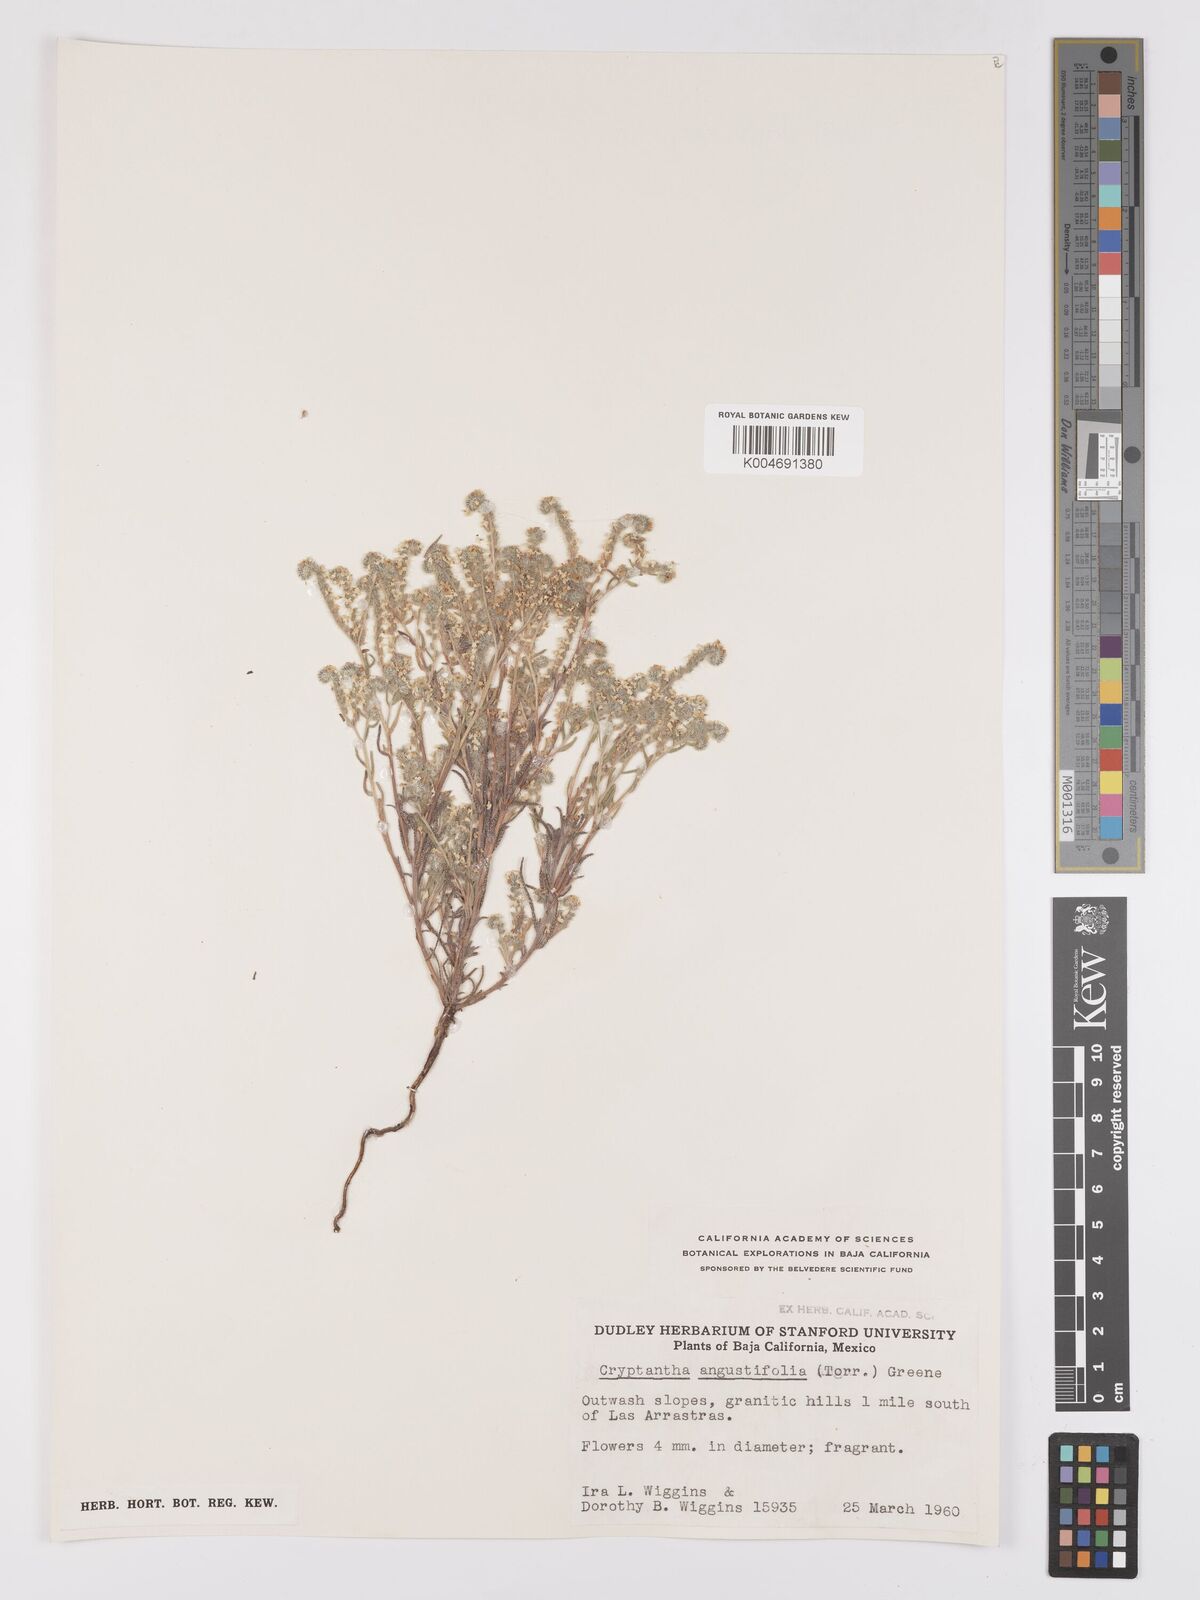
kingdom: Plantae
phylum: Tracheophyta
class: Magnoliopsida
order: Boraginales
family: Boraginaceae
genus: Johnstonella
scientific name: Johnstonella angustifolia
